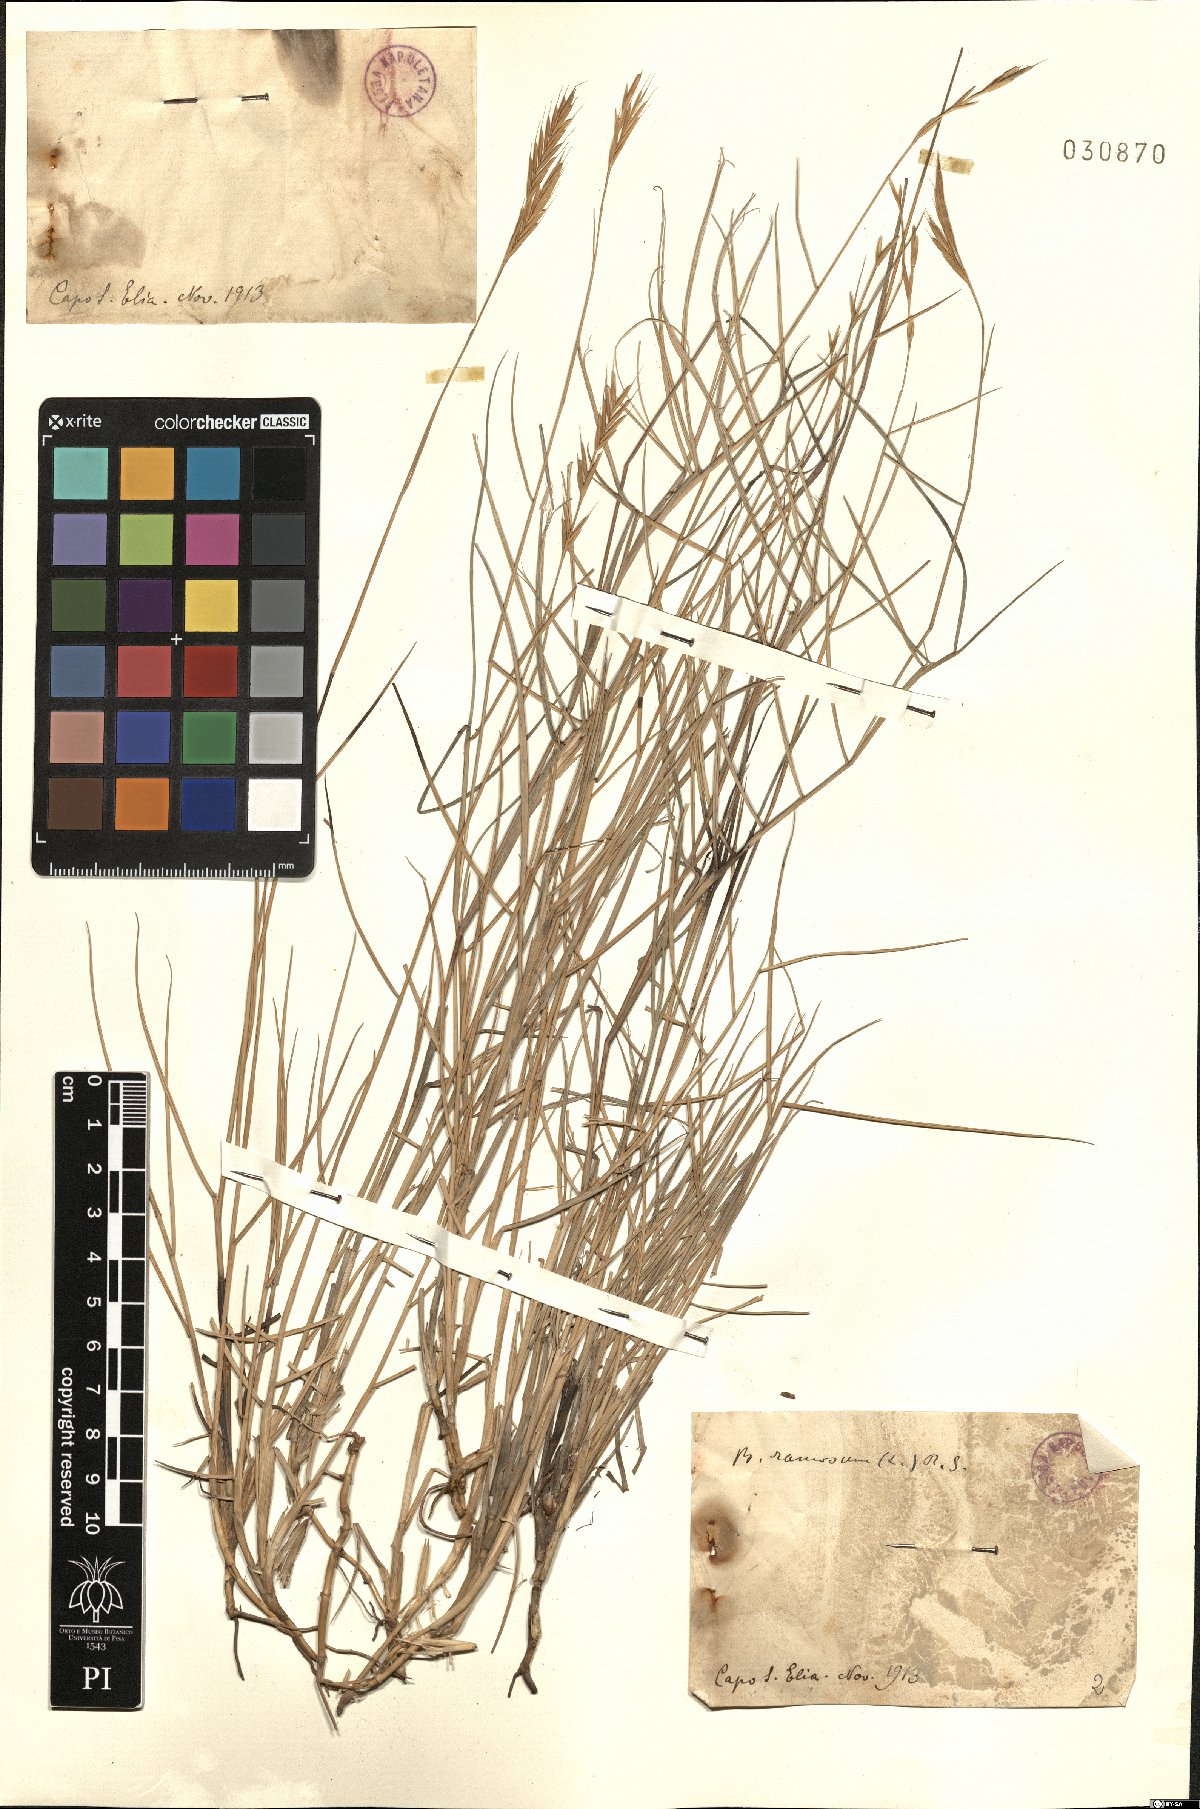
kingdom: Plantae
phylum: Tracheophyta
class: Liliopsida
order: Poales
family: Poaceae
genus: Brachypodium
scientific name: Brachypodium retusum
